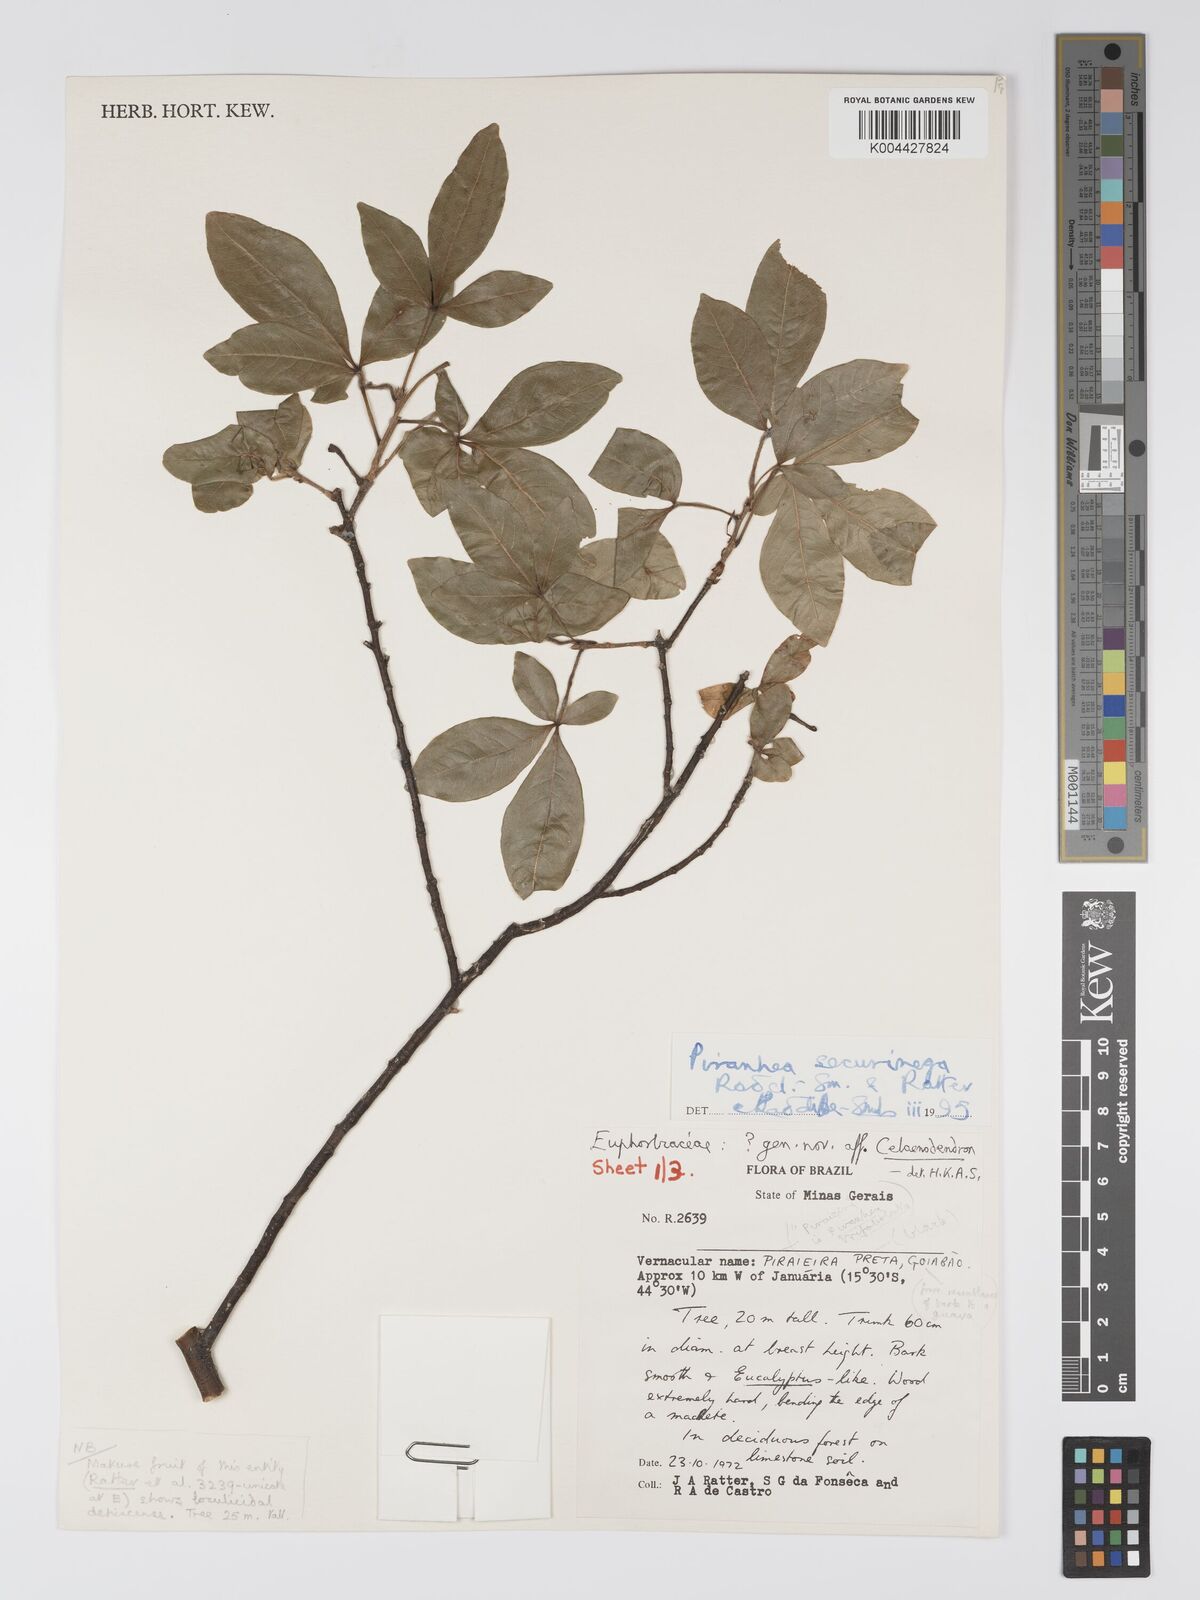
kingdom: Plantae
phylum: Tracheophyta
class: Magnoliopsida
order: Malpighiales
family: Picrodendraceae
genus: Piranhea
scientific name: Piranhea securinega
